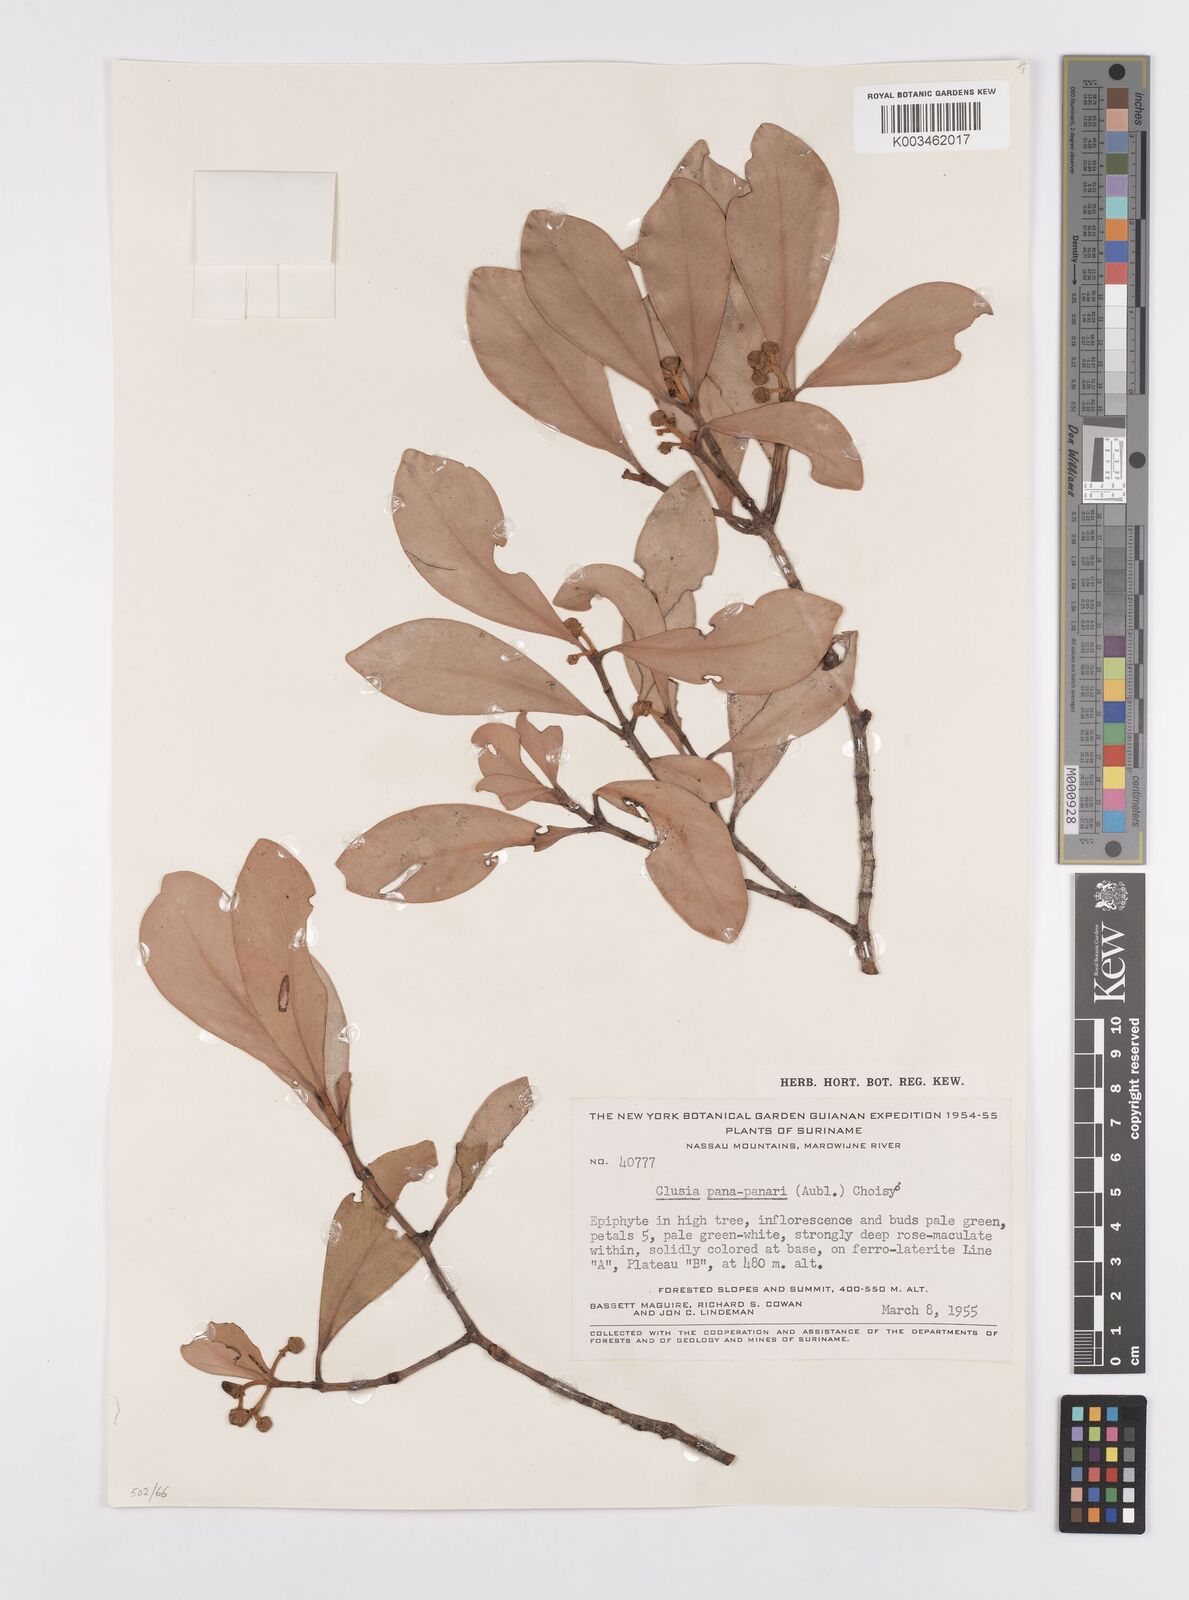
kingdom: Plantae
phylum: Tracheophyta
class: Magnoliopsida
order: Malpighiales
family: Clusiaceae
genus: Clusia
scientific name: Clusia panapanari
